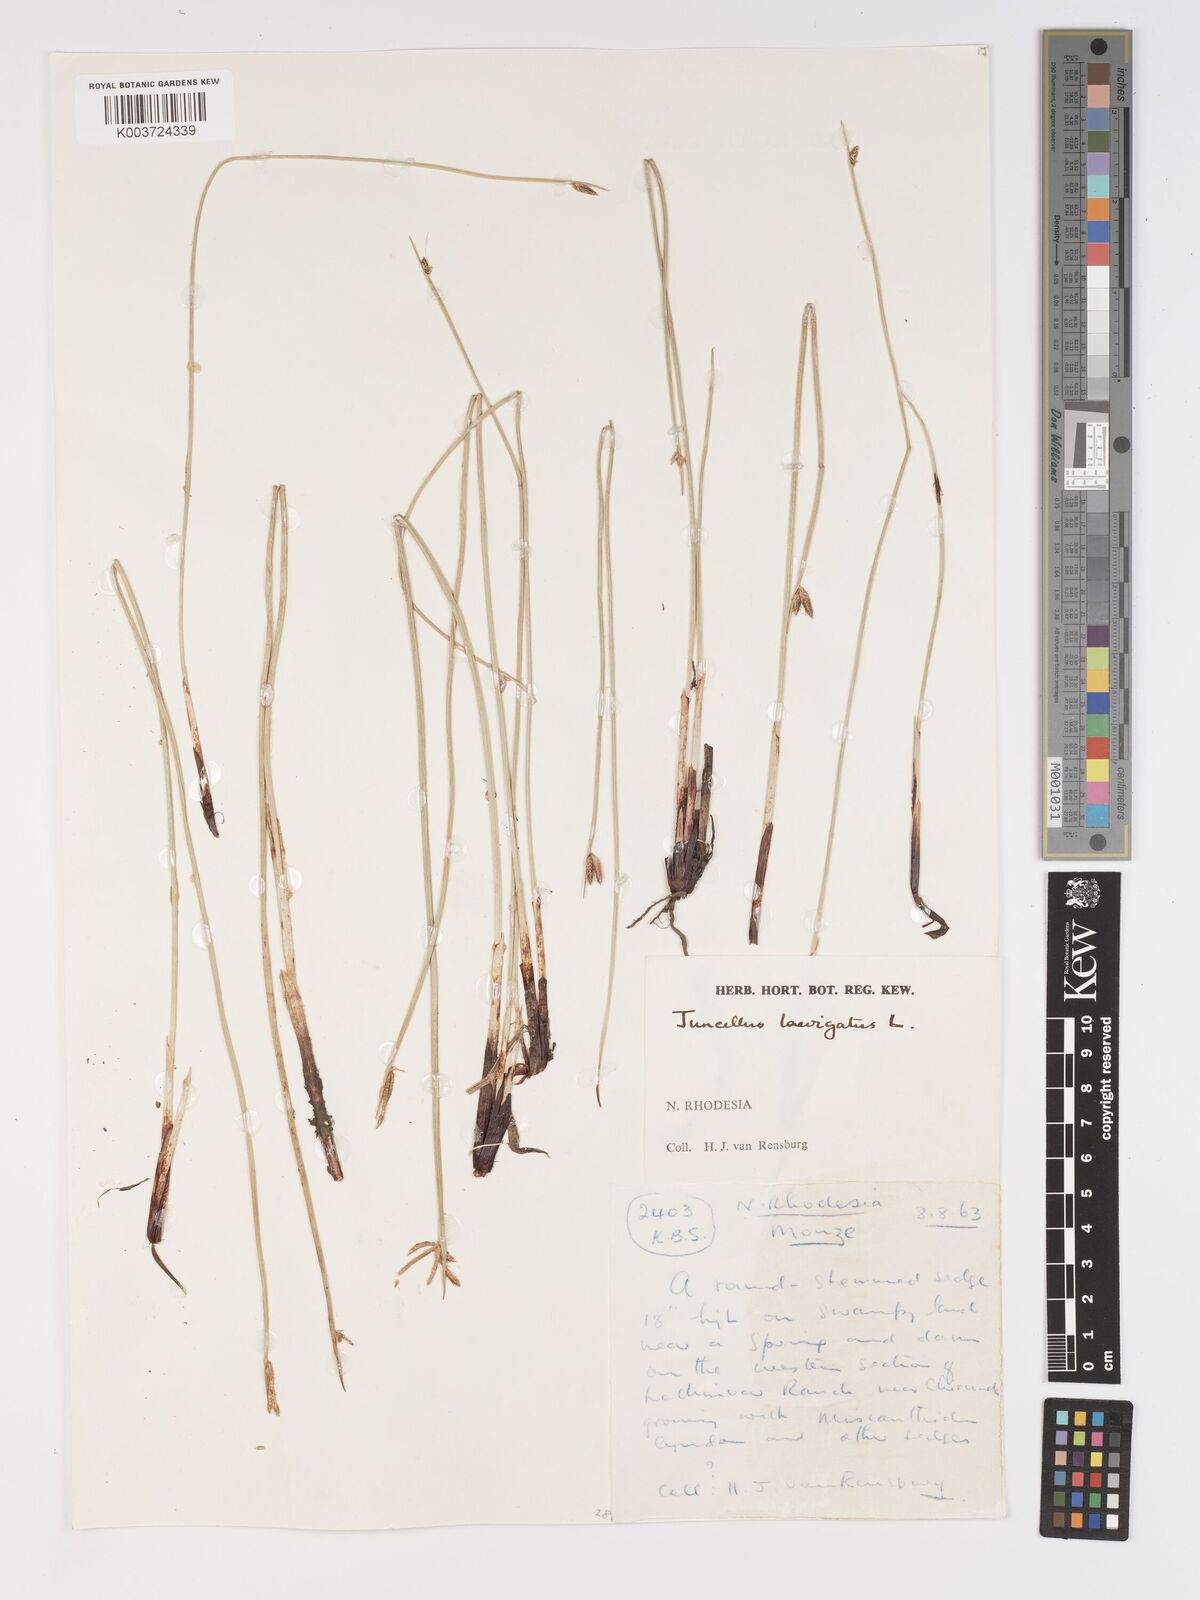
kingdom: Plantae
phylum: Tracheophyta
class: Liliopsida
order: Poales
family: Cyperaceae
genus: Cyperus
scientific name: Cyperus laevigatus
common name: Smooth flat sedge
